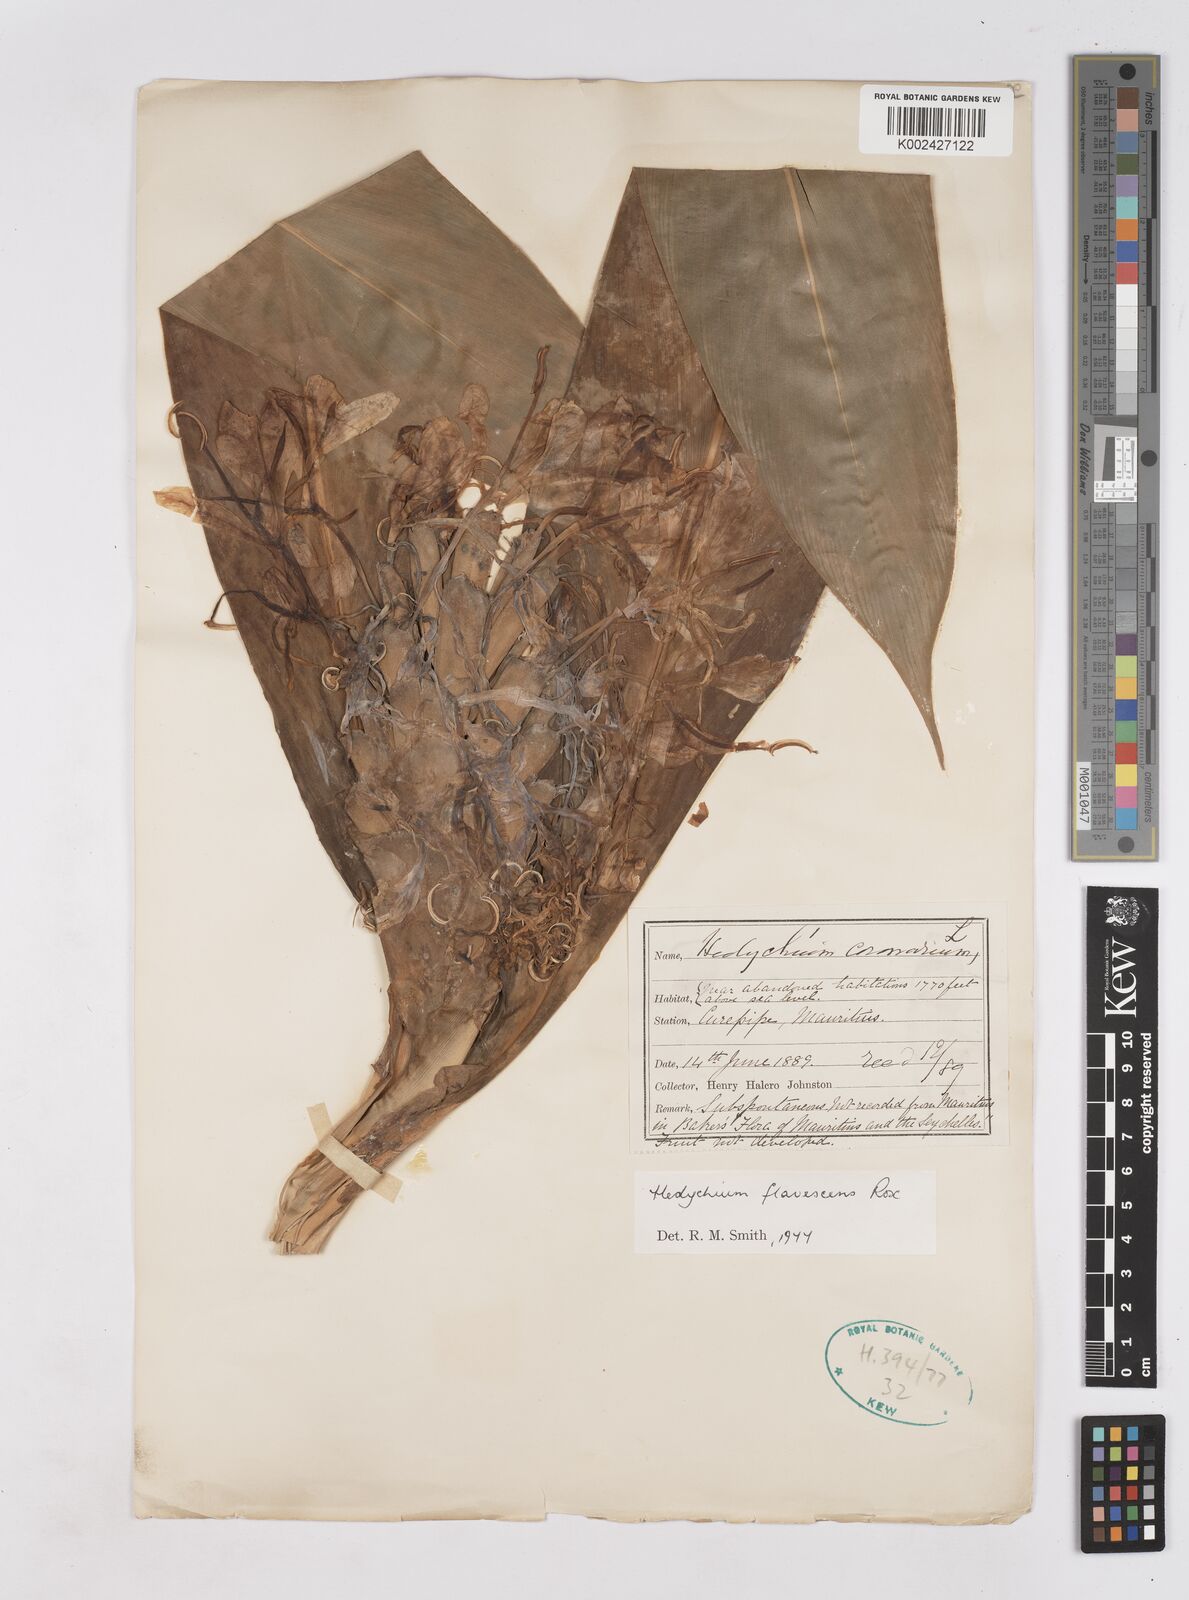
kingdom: Plantae
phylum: Tracheophyta
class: Liliopsida
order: Zingiberales
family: Zingiberaceae
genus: Hedychium
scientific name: Hedychium flavescens
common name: Yellow ginger
